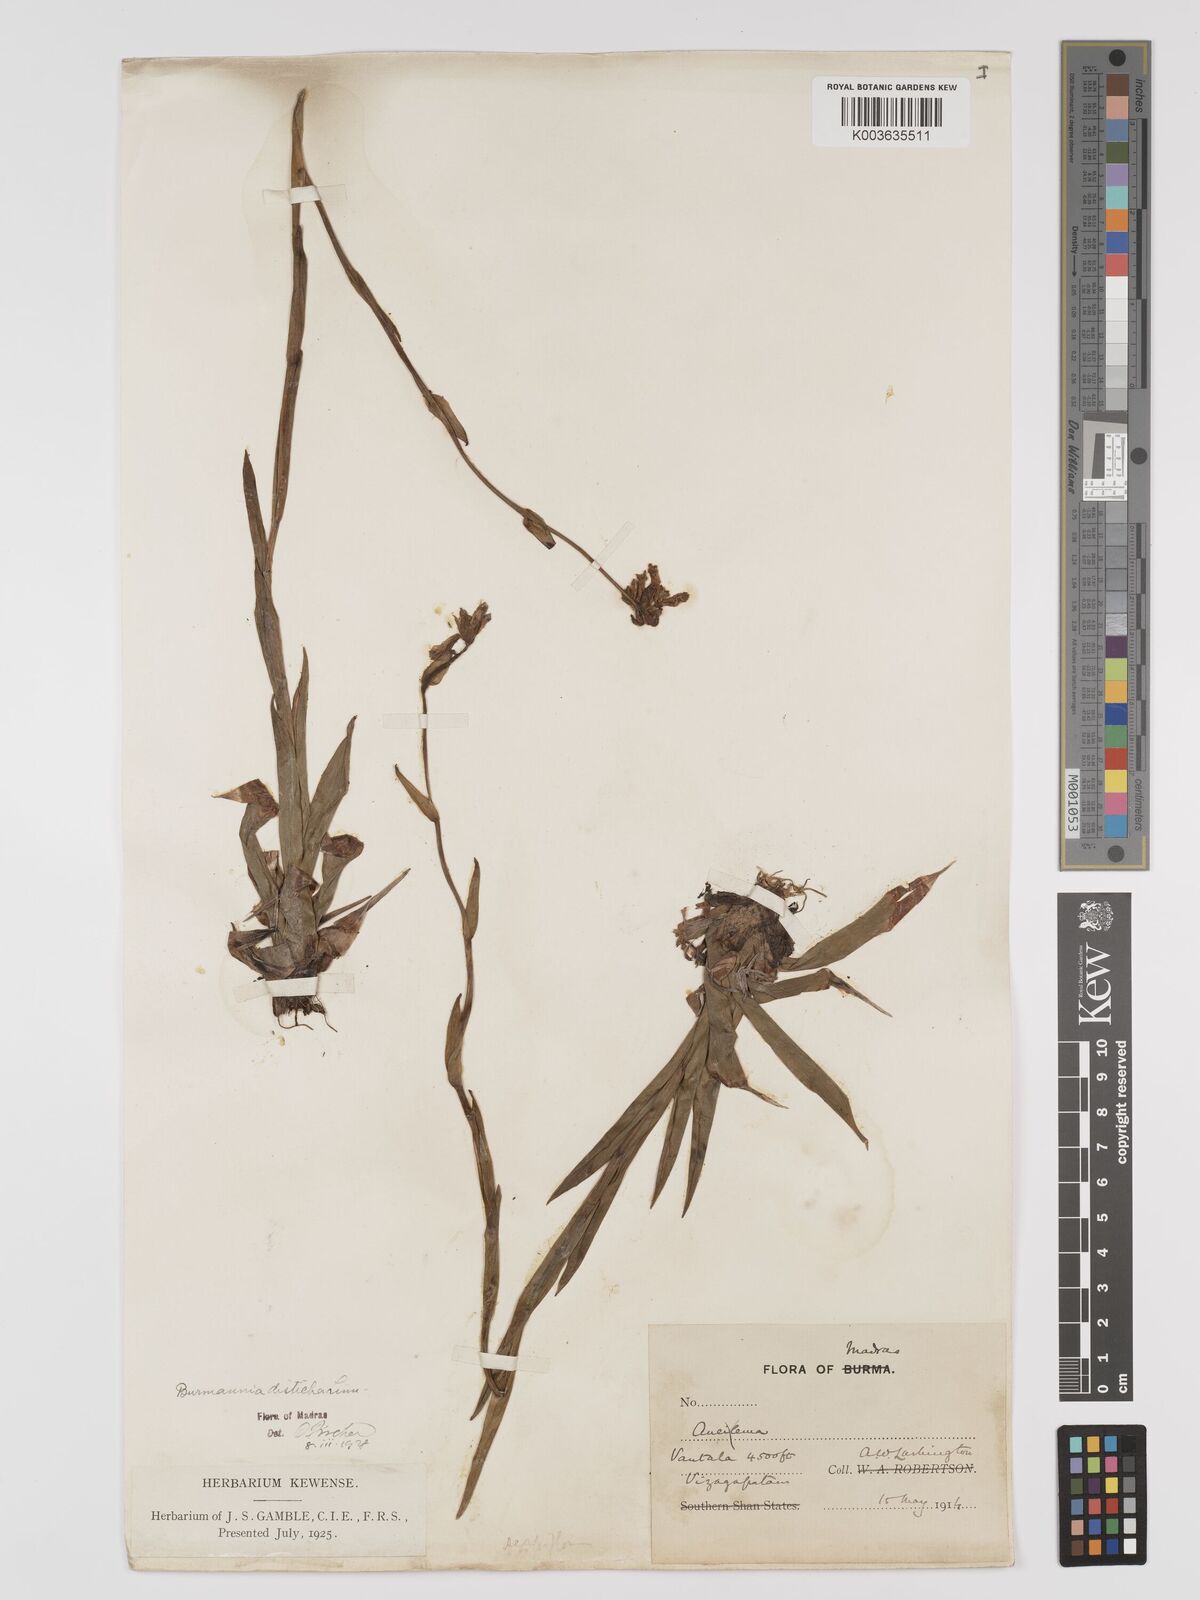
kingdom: Plantae
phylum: Tracheophyta
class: Liliopsida
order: Dioscoreales
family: Burmanniaceae
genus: Burmannia
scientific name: Burmannia disticha
